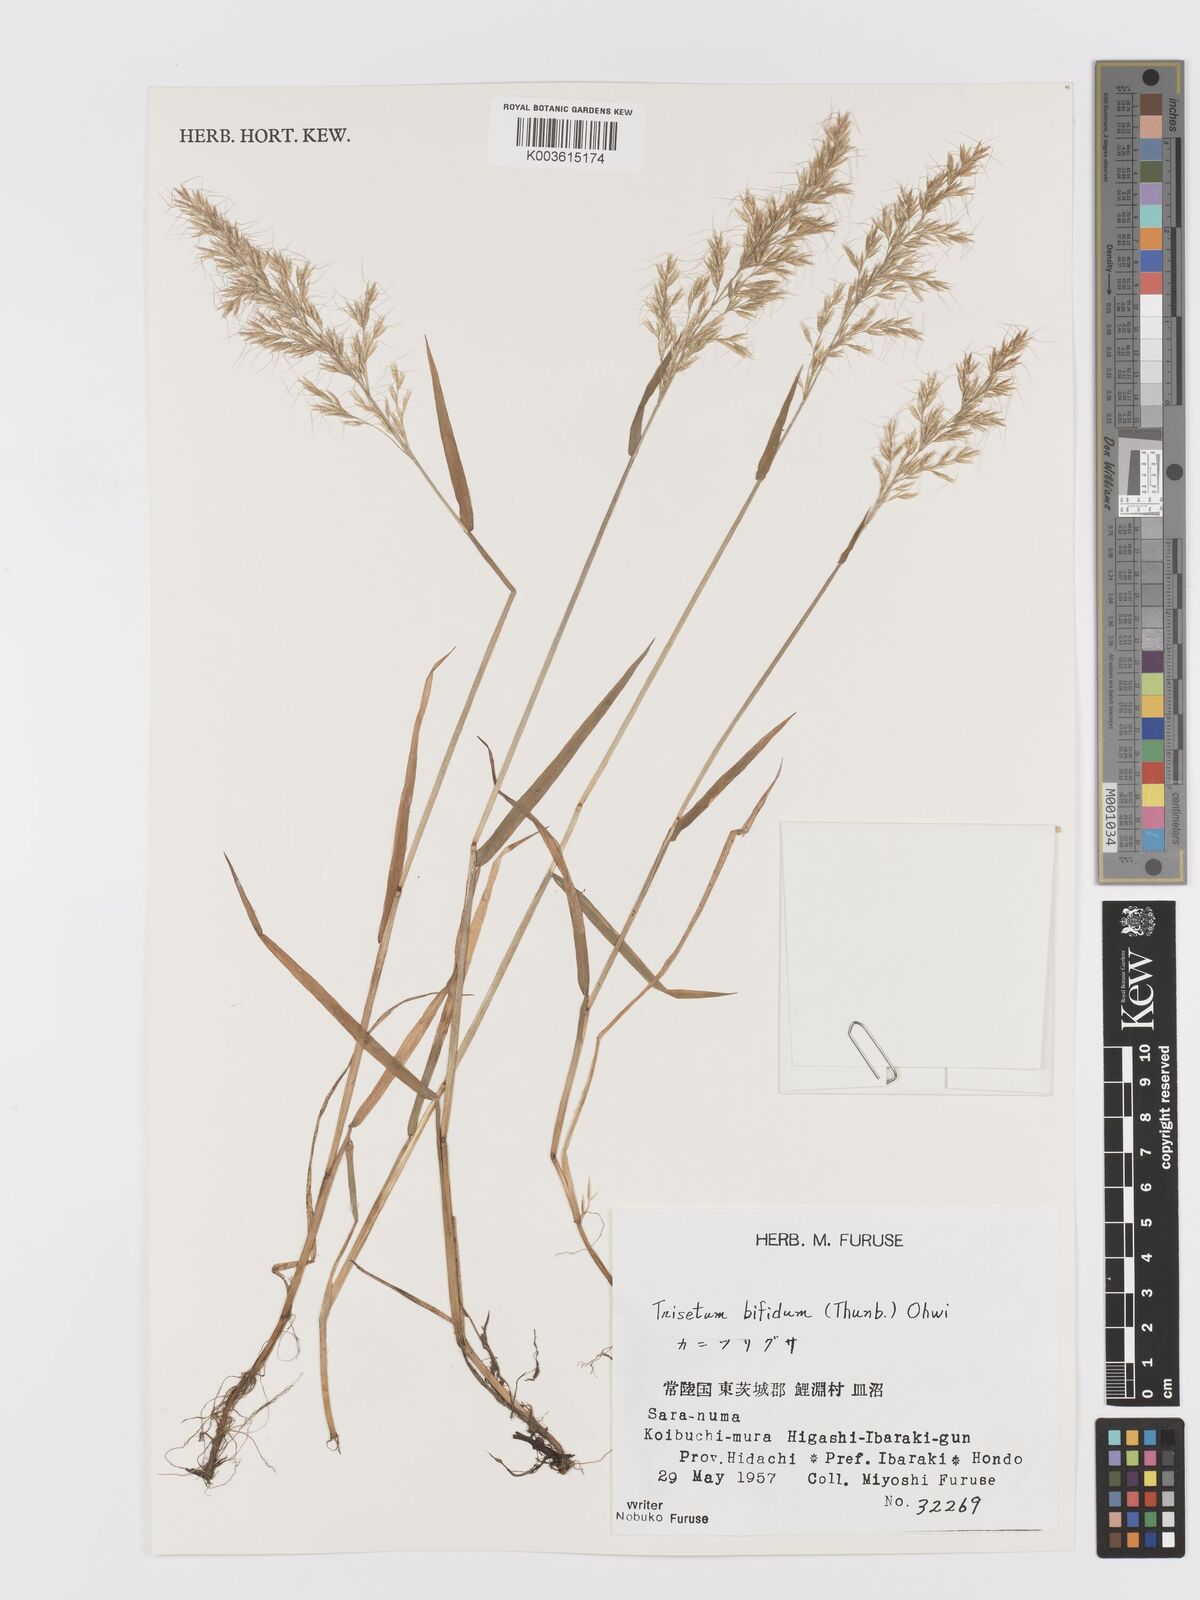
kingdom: Plantae
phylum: Tracheophyta
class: Liliopsida
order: Poales
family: Poaceae
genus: Sibirotrisetum
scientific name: Sibirotrisetum bifidum
